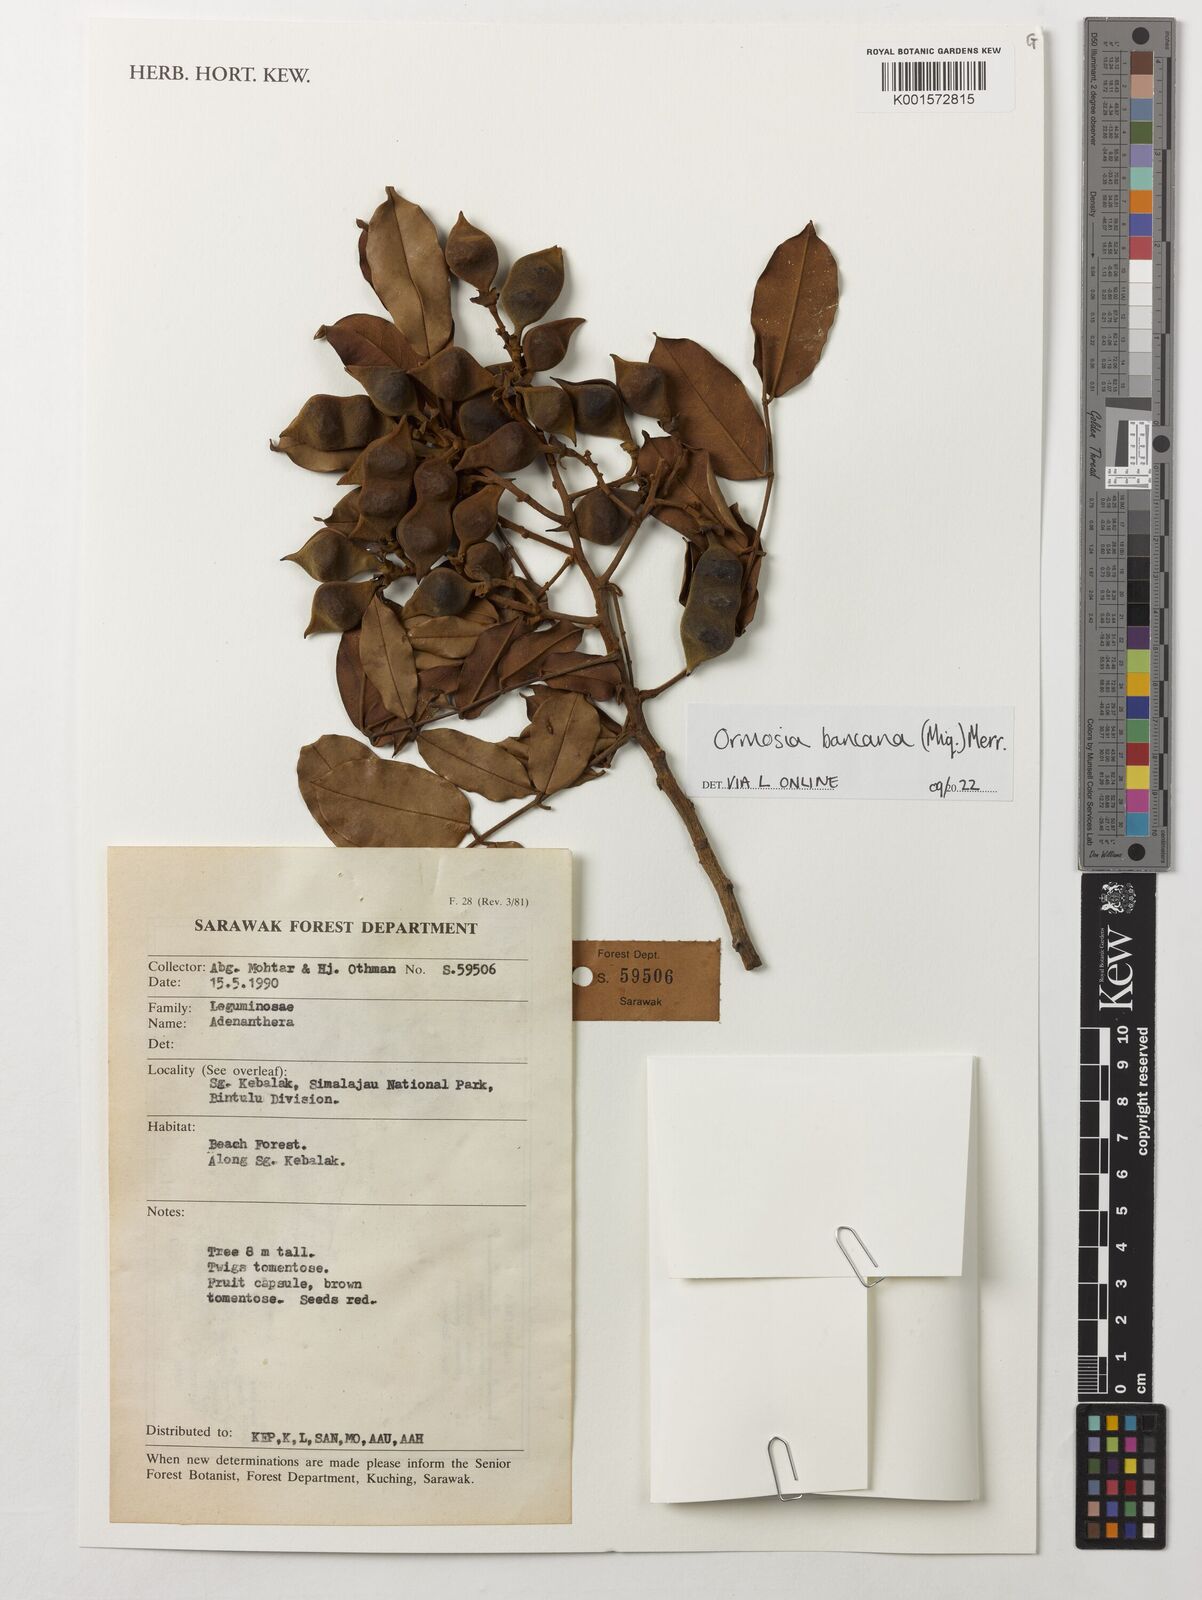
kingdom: Plantae
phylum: Tracheophyta
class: Magnoliopsida
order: Fabales
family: Fabaceae
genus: Ormosia
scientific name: Ormosia bancana
